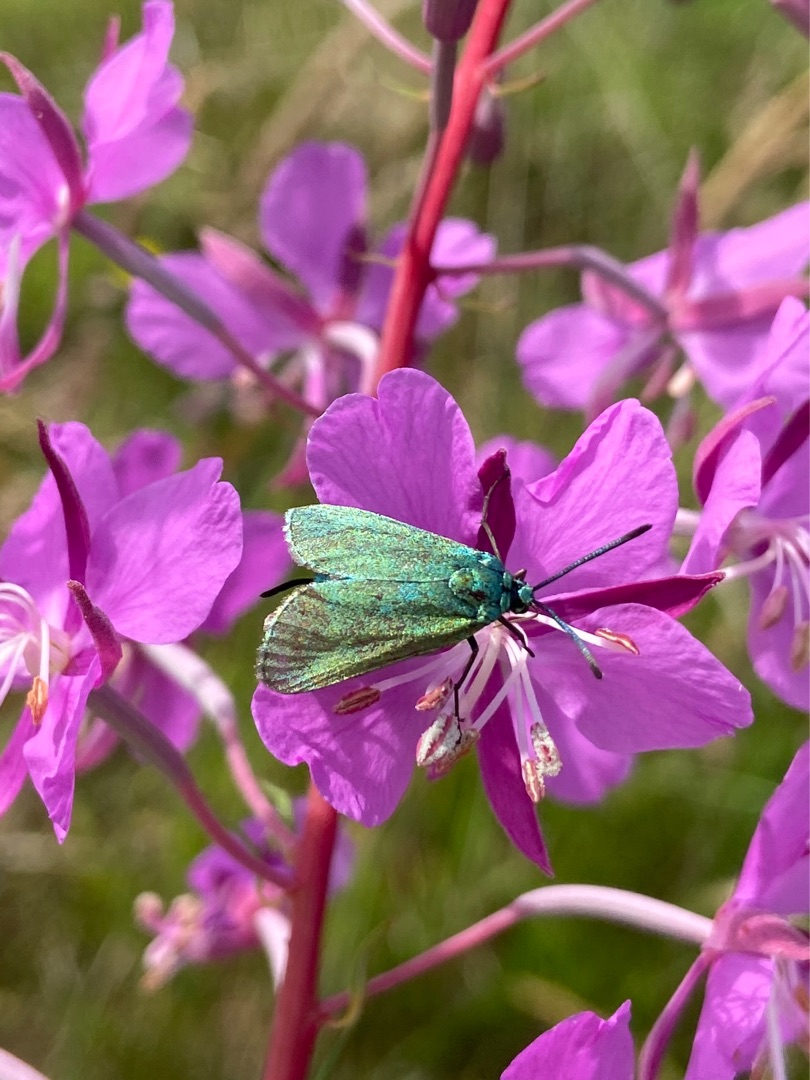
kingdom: Animalia
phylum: Arthropoda
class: Insecta
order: Lepidoptera
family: Zygaenidae
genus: Adscita
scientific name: Adscita statices
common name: Metalvinge
